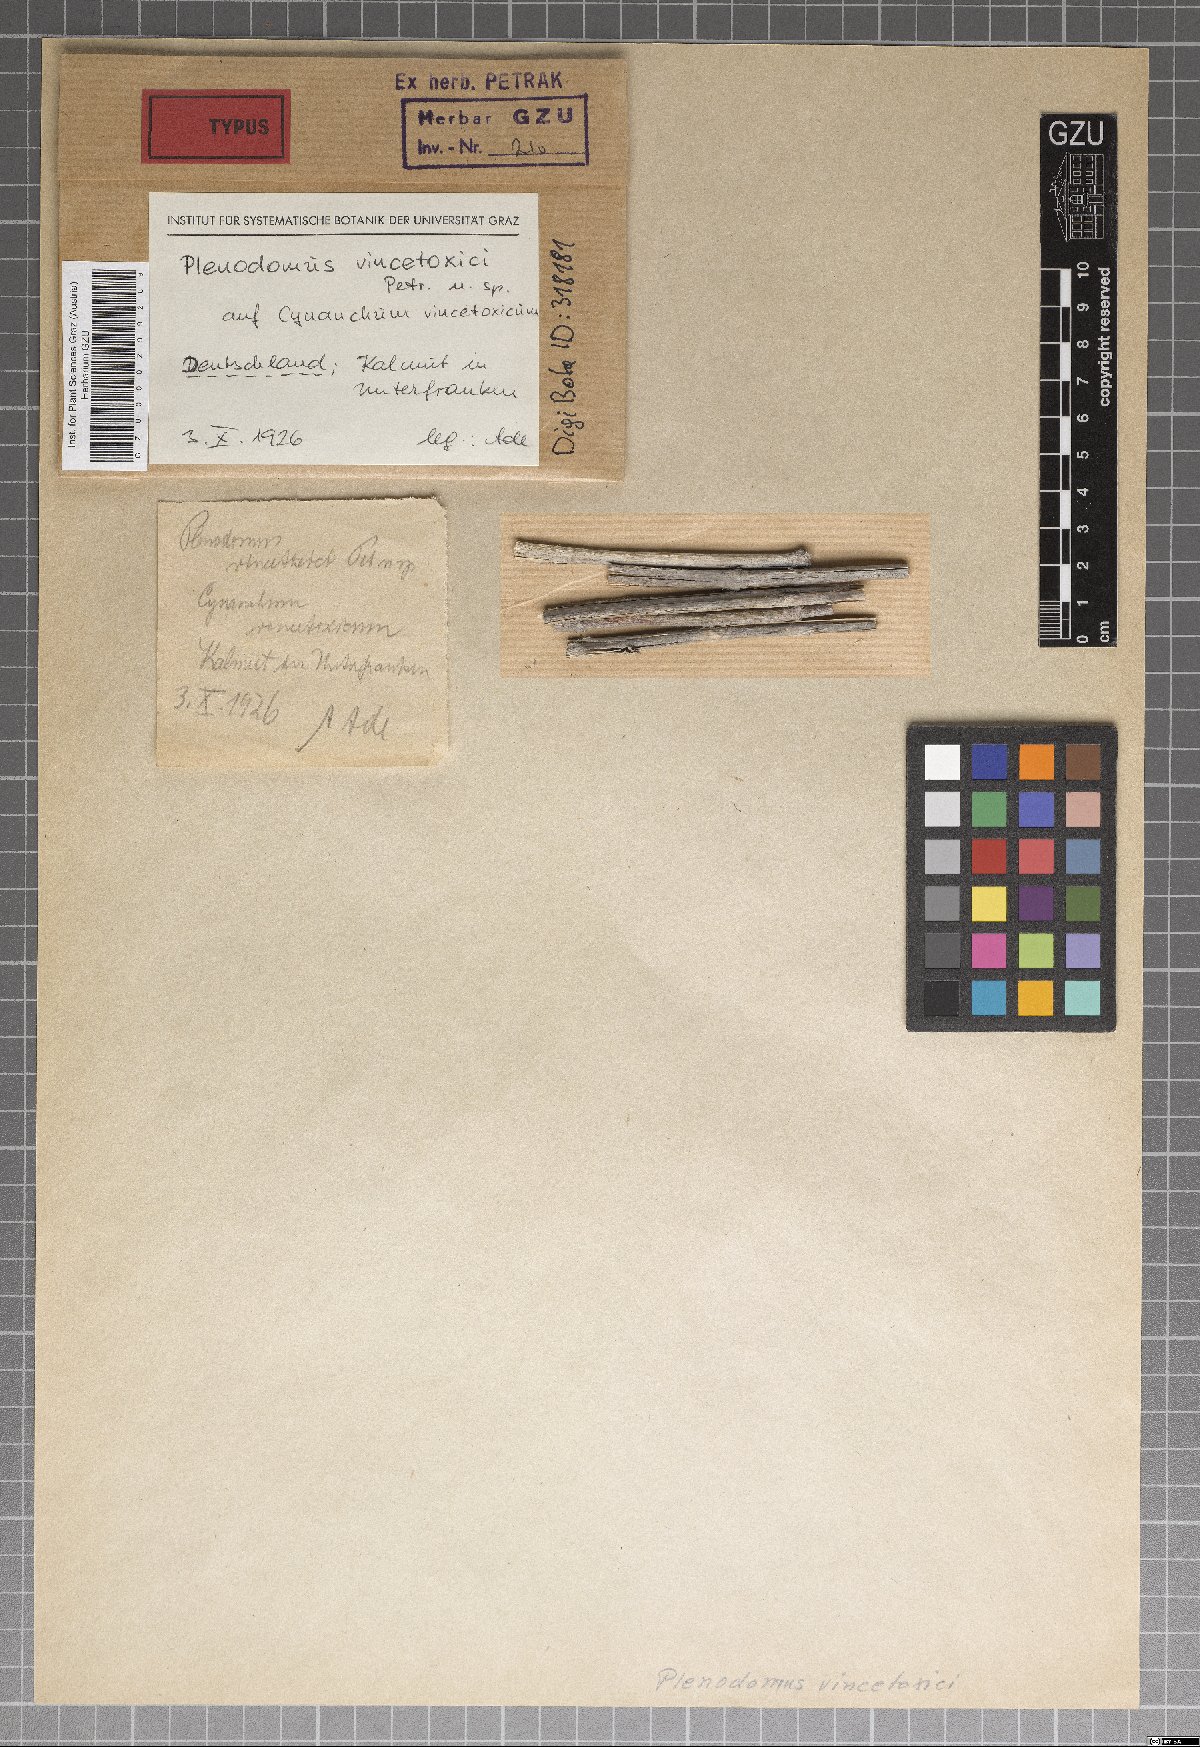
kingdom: Fungi
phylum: Ascomycota
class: Dothideomycetes
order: Pleosporales
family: Leptosphaeriaceae
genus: Plenodomus
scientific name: Plenodomus vincetoxici
